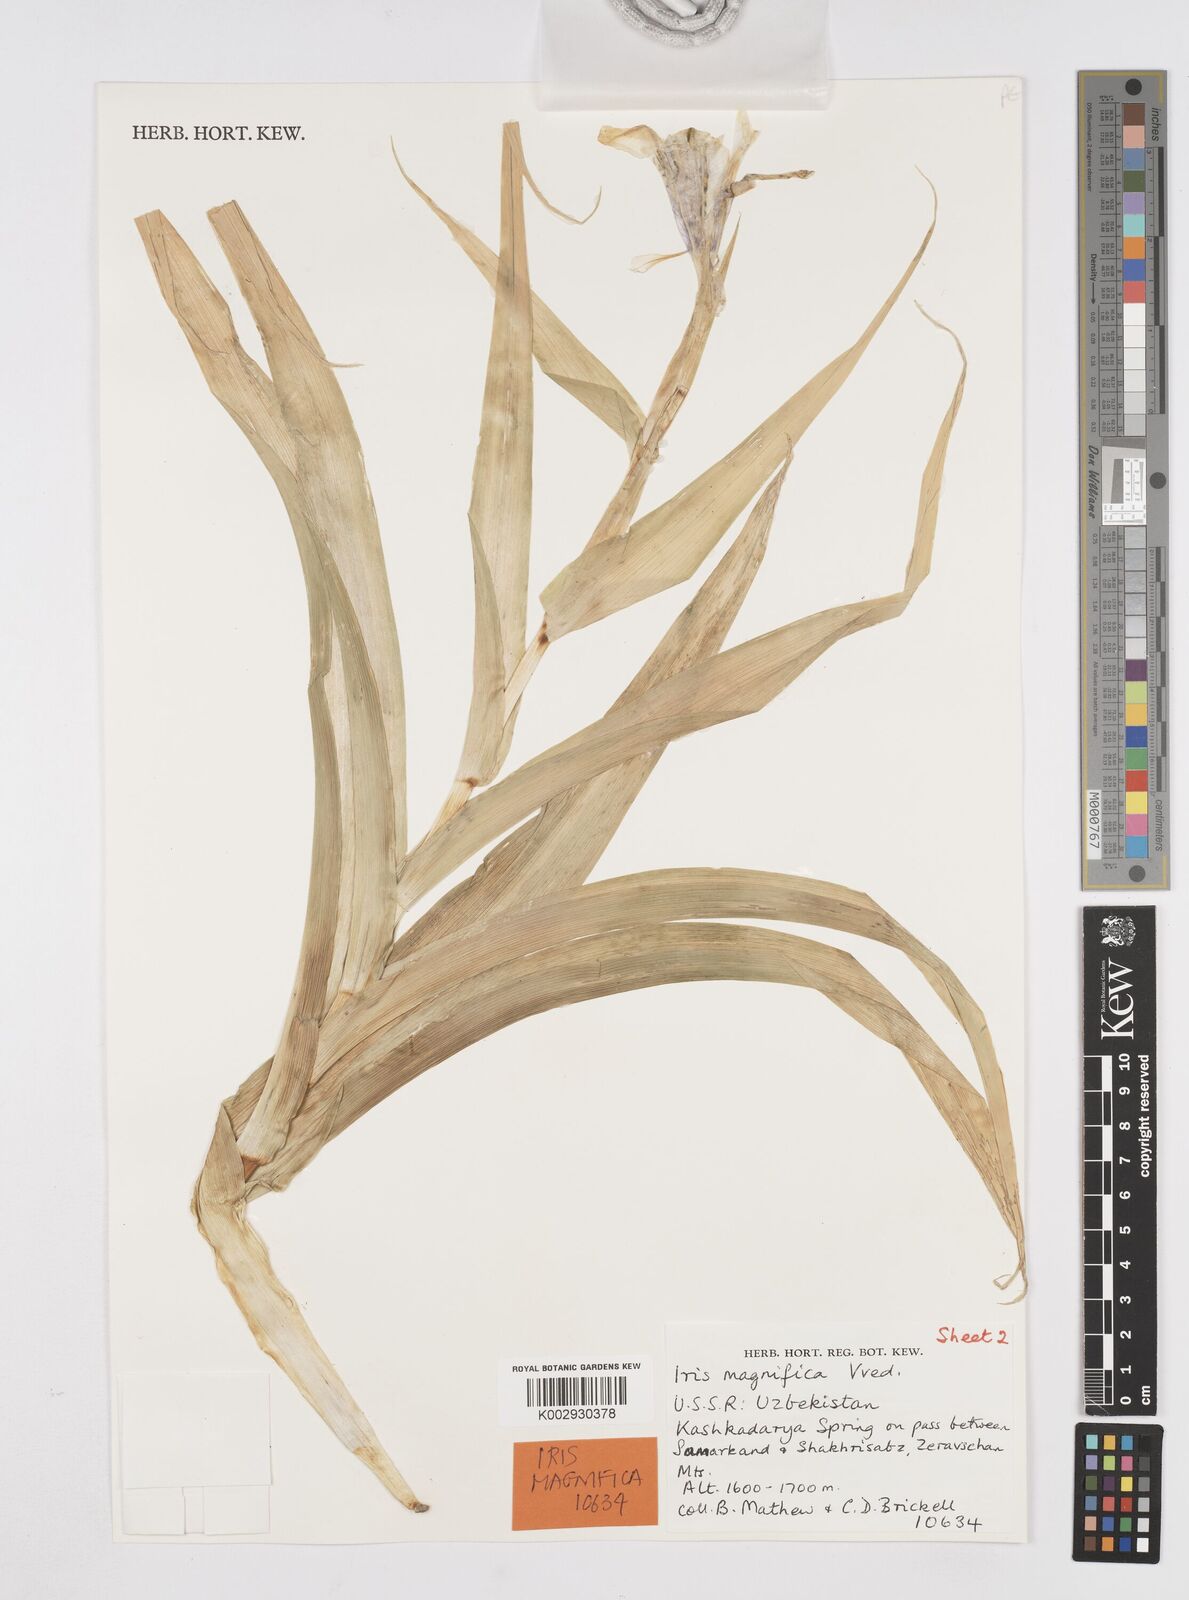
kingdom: Plantae
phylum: Tracheophyta
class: Liliopsida
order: Asparagales
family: Iridaceae
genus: Iris
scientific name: Iris magnifica
